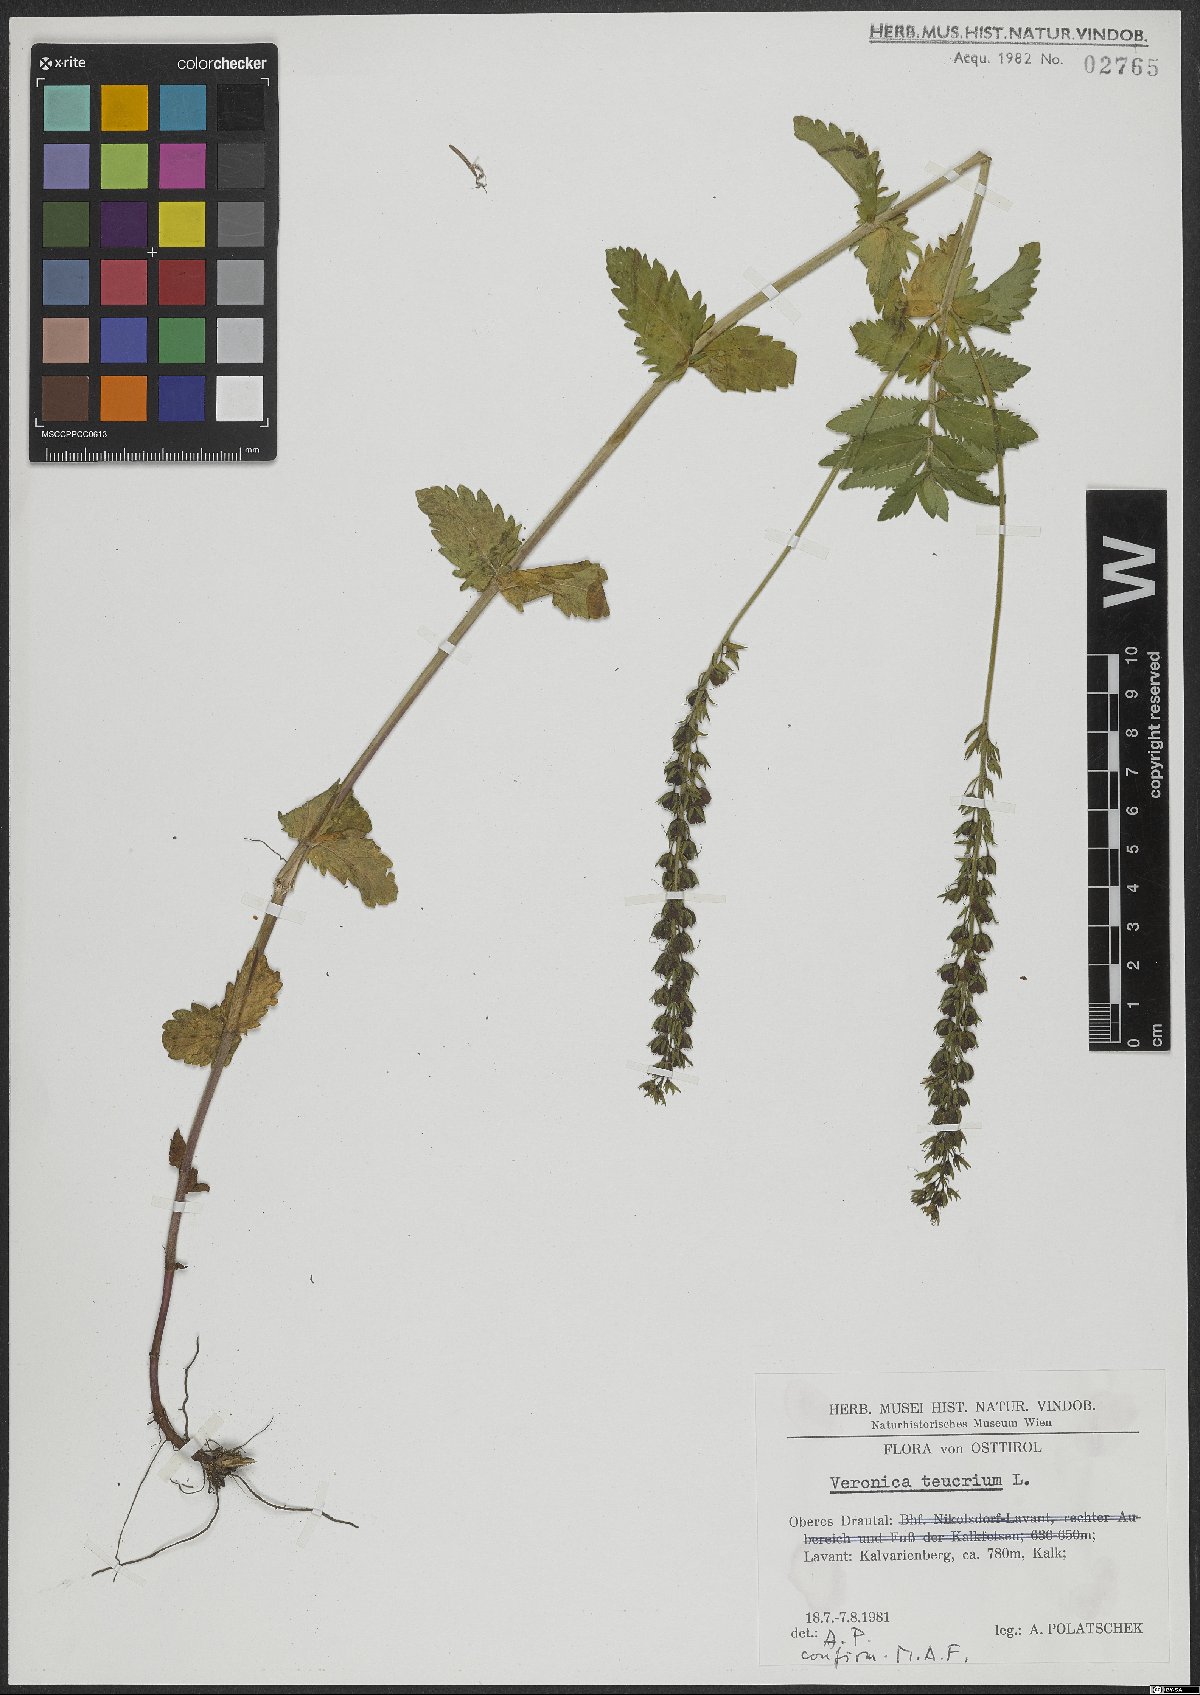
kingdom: Plantae
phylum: Tracheophyta
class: Magnoliopsida
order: Lamiales
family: Plantaginaceae
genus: Veronica
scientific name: Veronica teucrium
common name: Large speedwell
